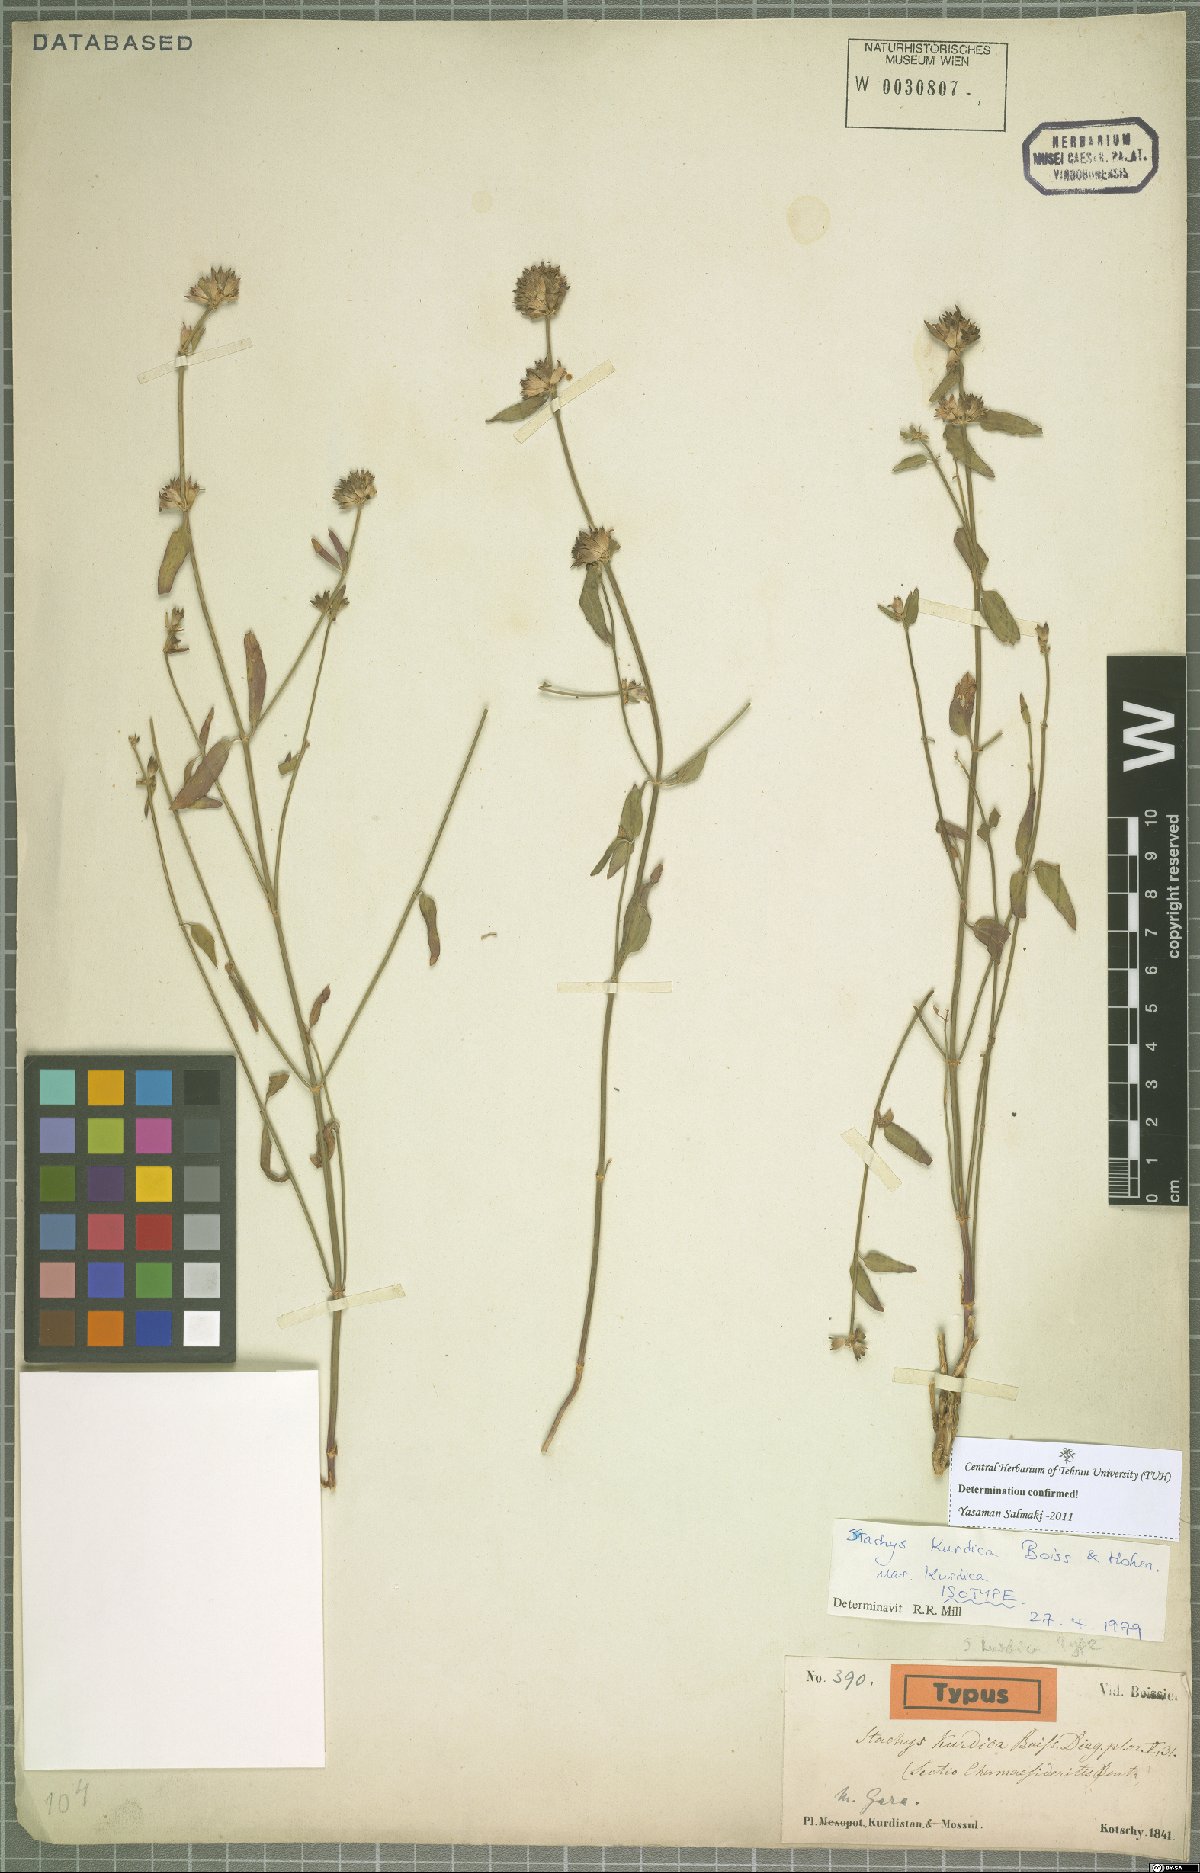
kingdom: Plantae
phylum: Tracheophyta
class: Magnoliopsida
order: Lamiales
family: Lamiaceae
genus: Stachys
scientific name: Stachys kurdica
